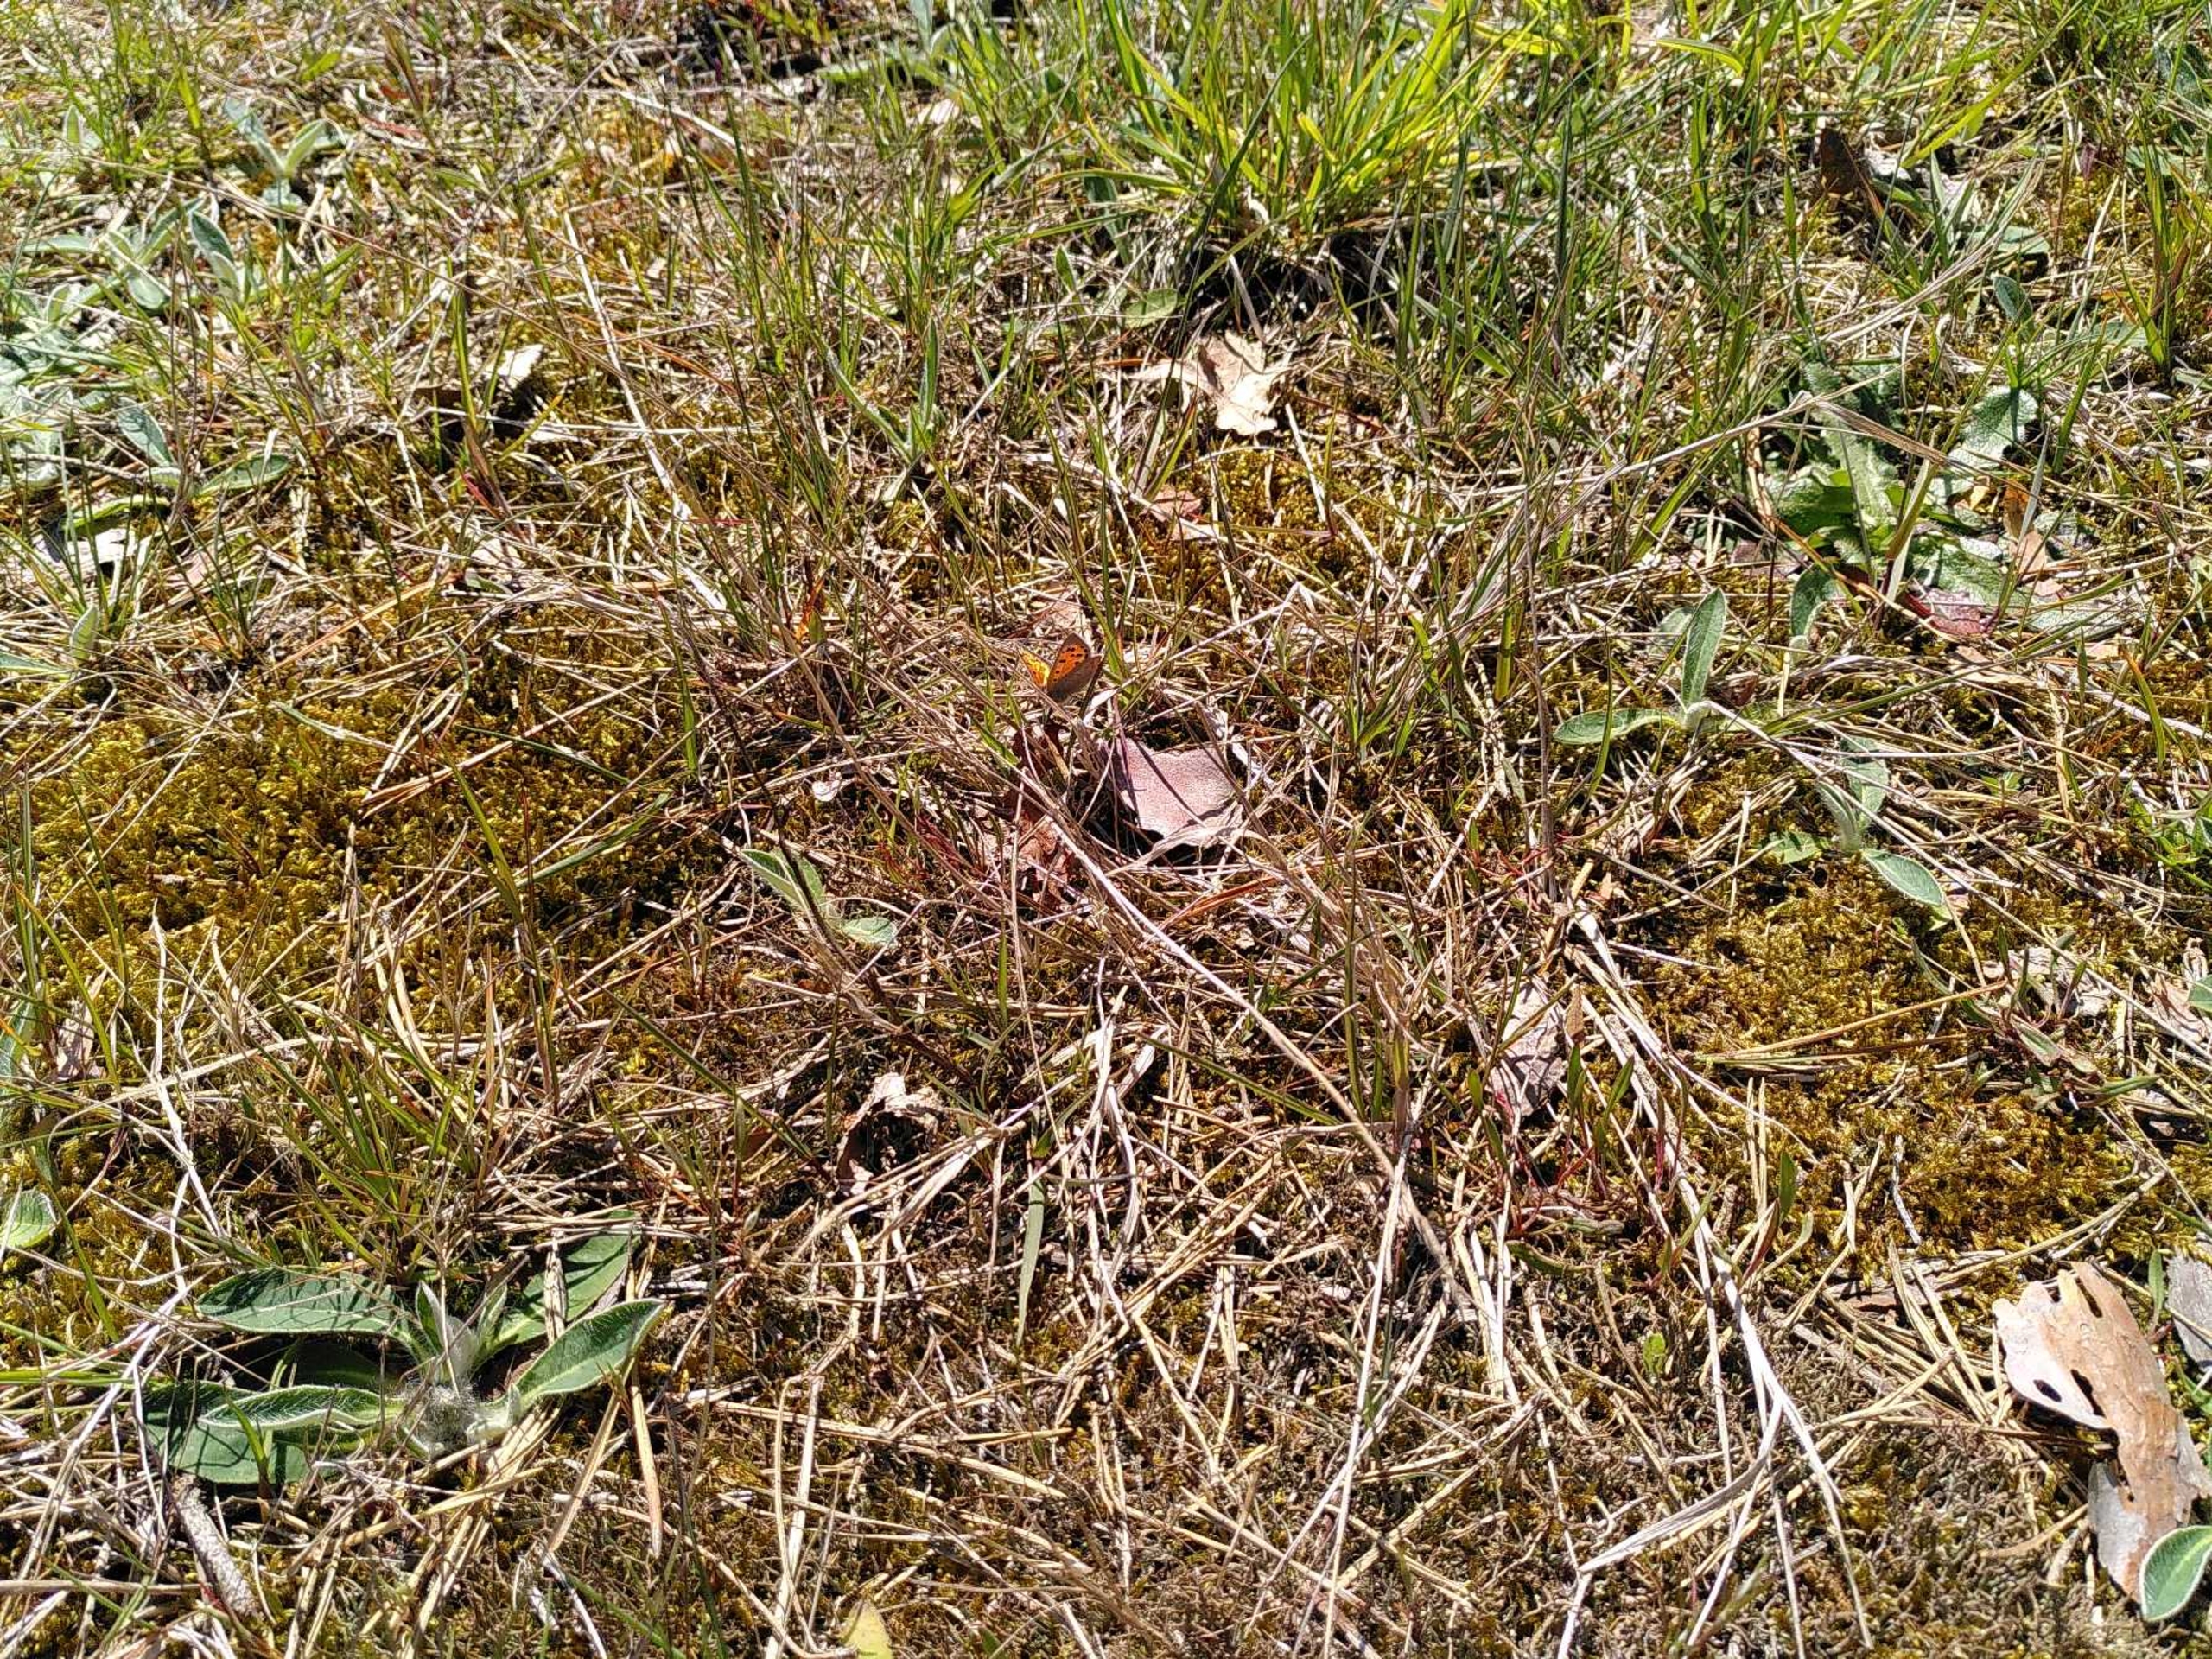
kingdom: Animalia
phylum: Arthropoda
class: Insecta
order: Lepidoptera
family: Lycaenidae
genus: Lycaena
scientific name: Lycaena phlaeas
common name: Lille ildfugl
